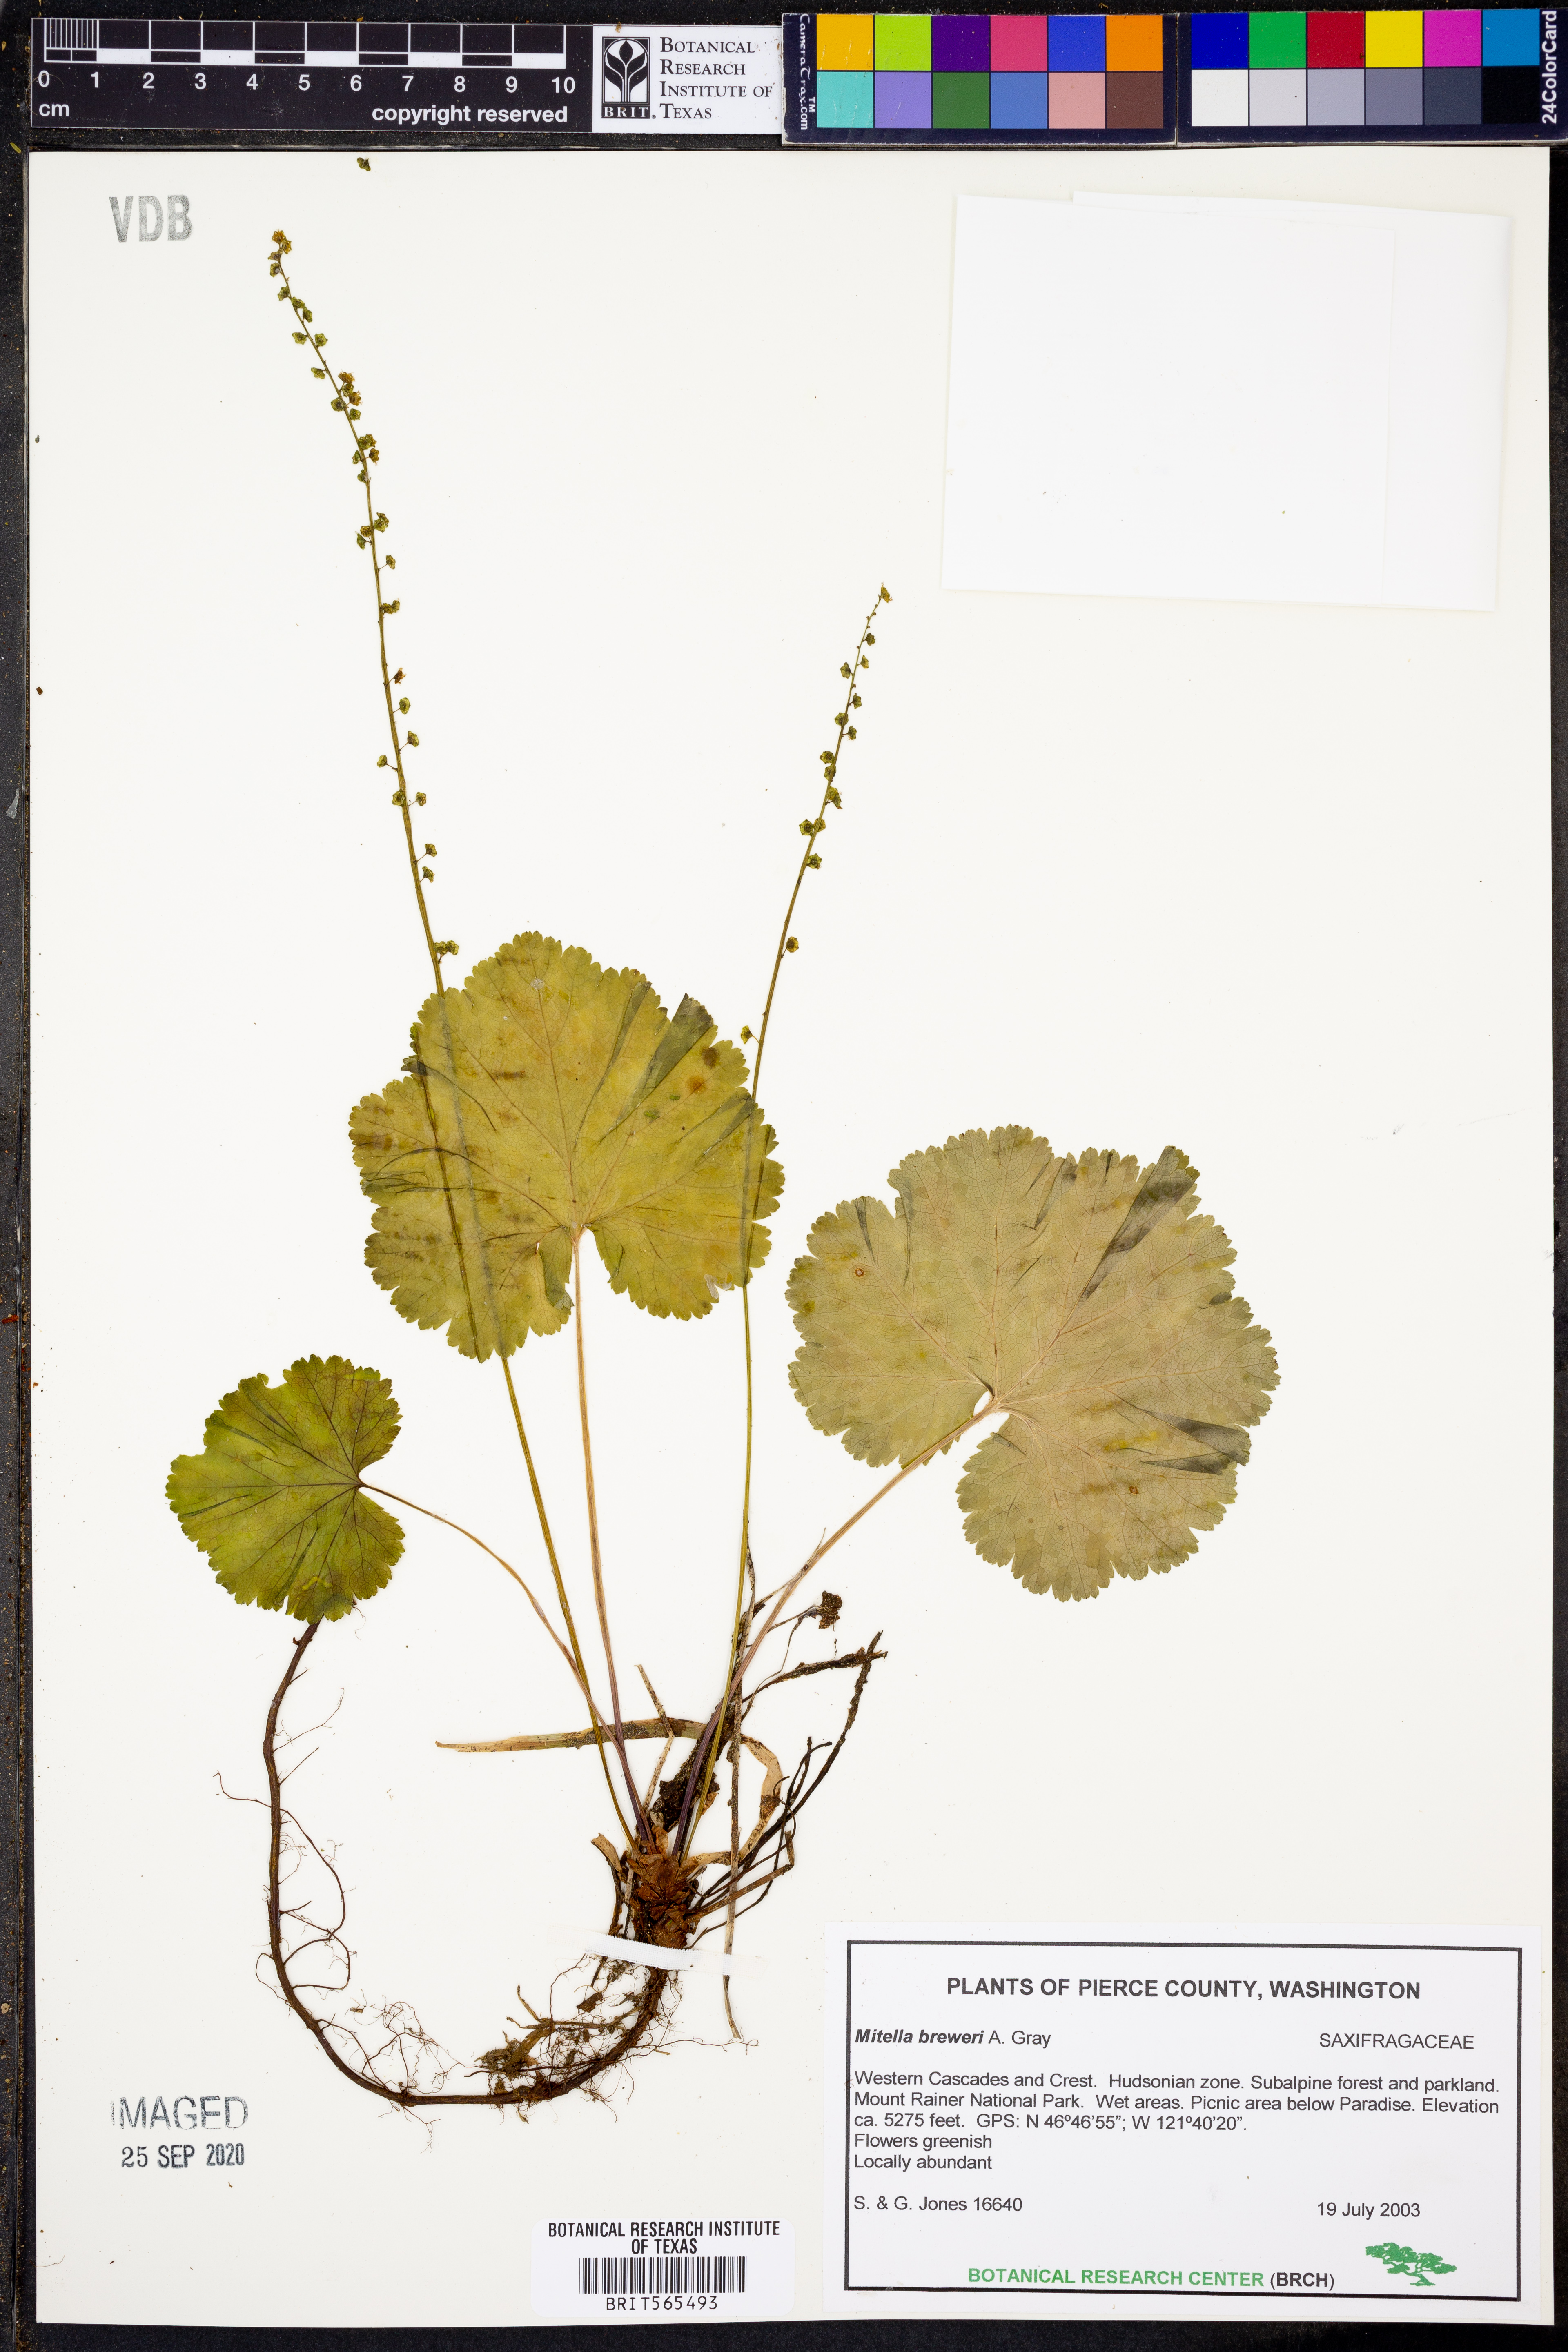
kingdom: Plantae
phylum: Tracheophyta
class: Magnoliopsida
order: Saxifragales
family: Saxifragaceae
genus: Brewerimitella
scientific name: Brewerimitella breweri
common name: Brewer's bishop's-cap
